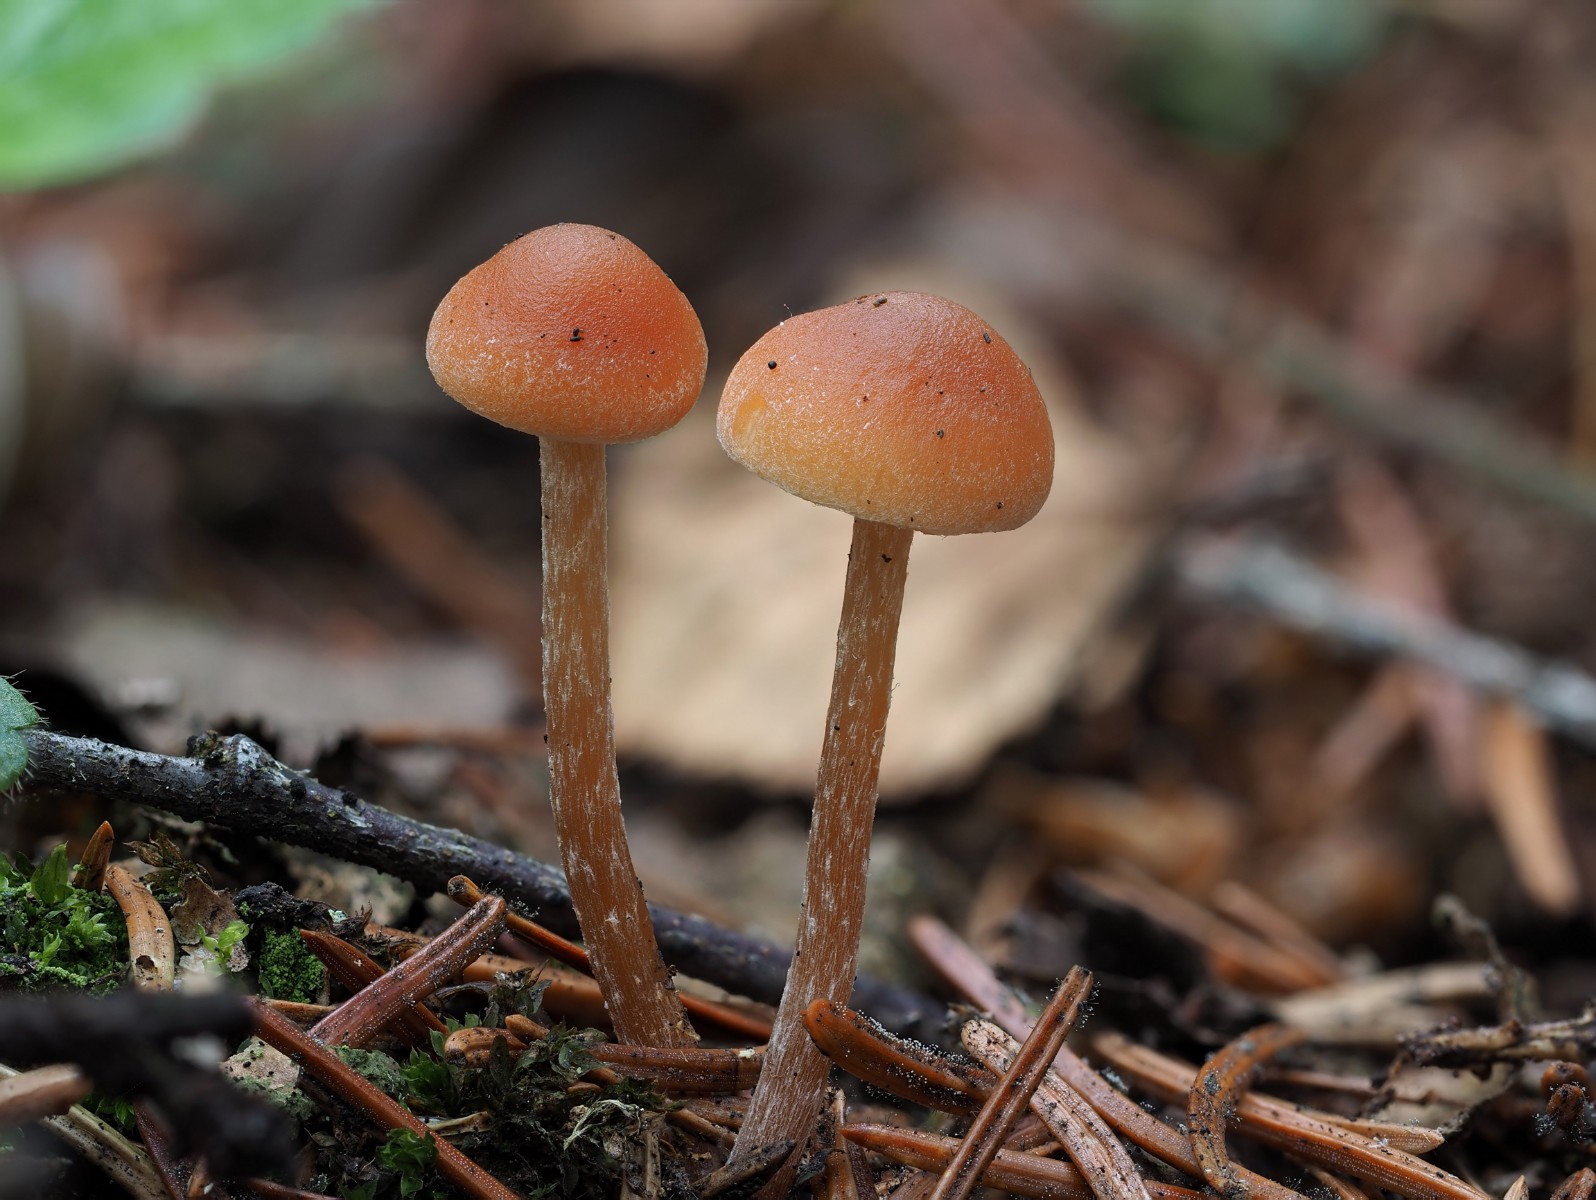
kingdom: Fungi
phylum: Basidiomycota
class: Agaricomycetes
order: Agaricales
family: Strophariaceae
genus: Bogbodia
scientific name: Bogbodia uda
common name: tørve-svovlhat
